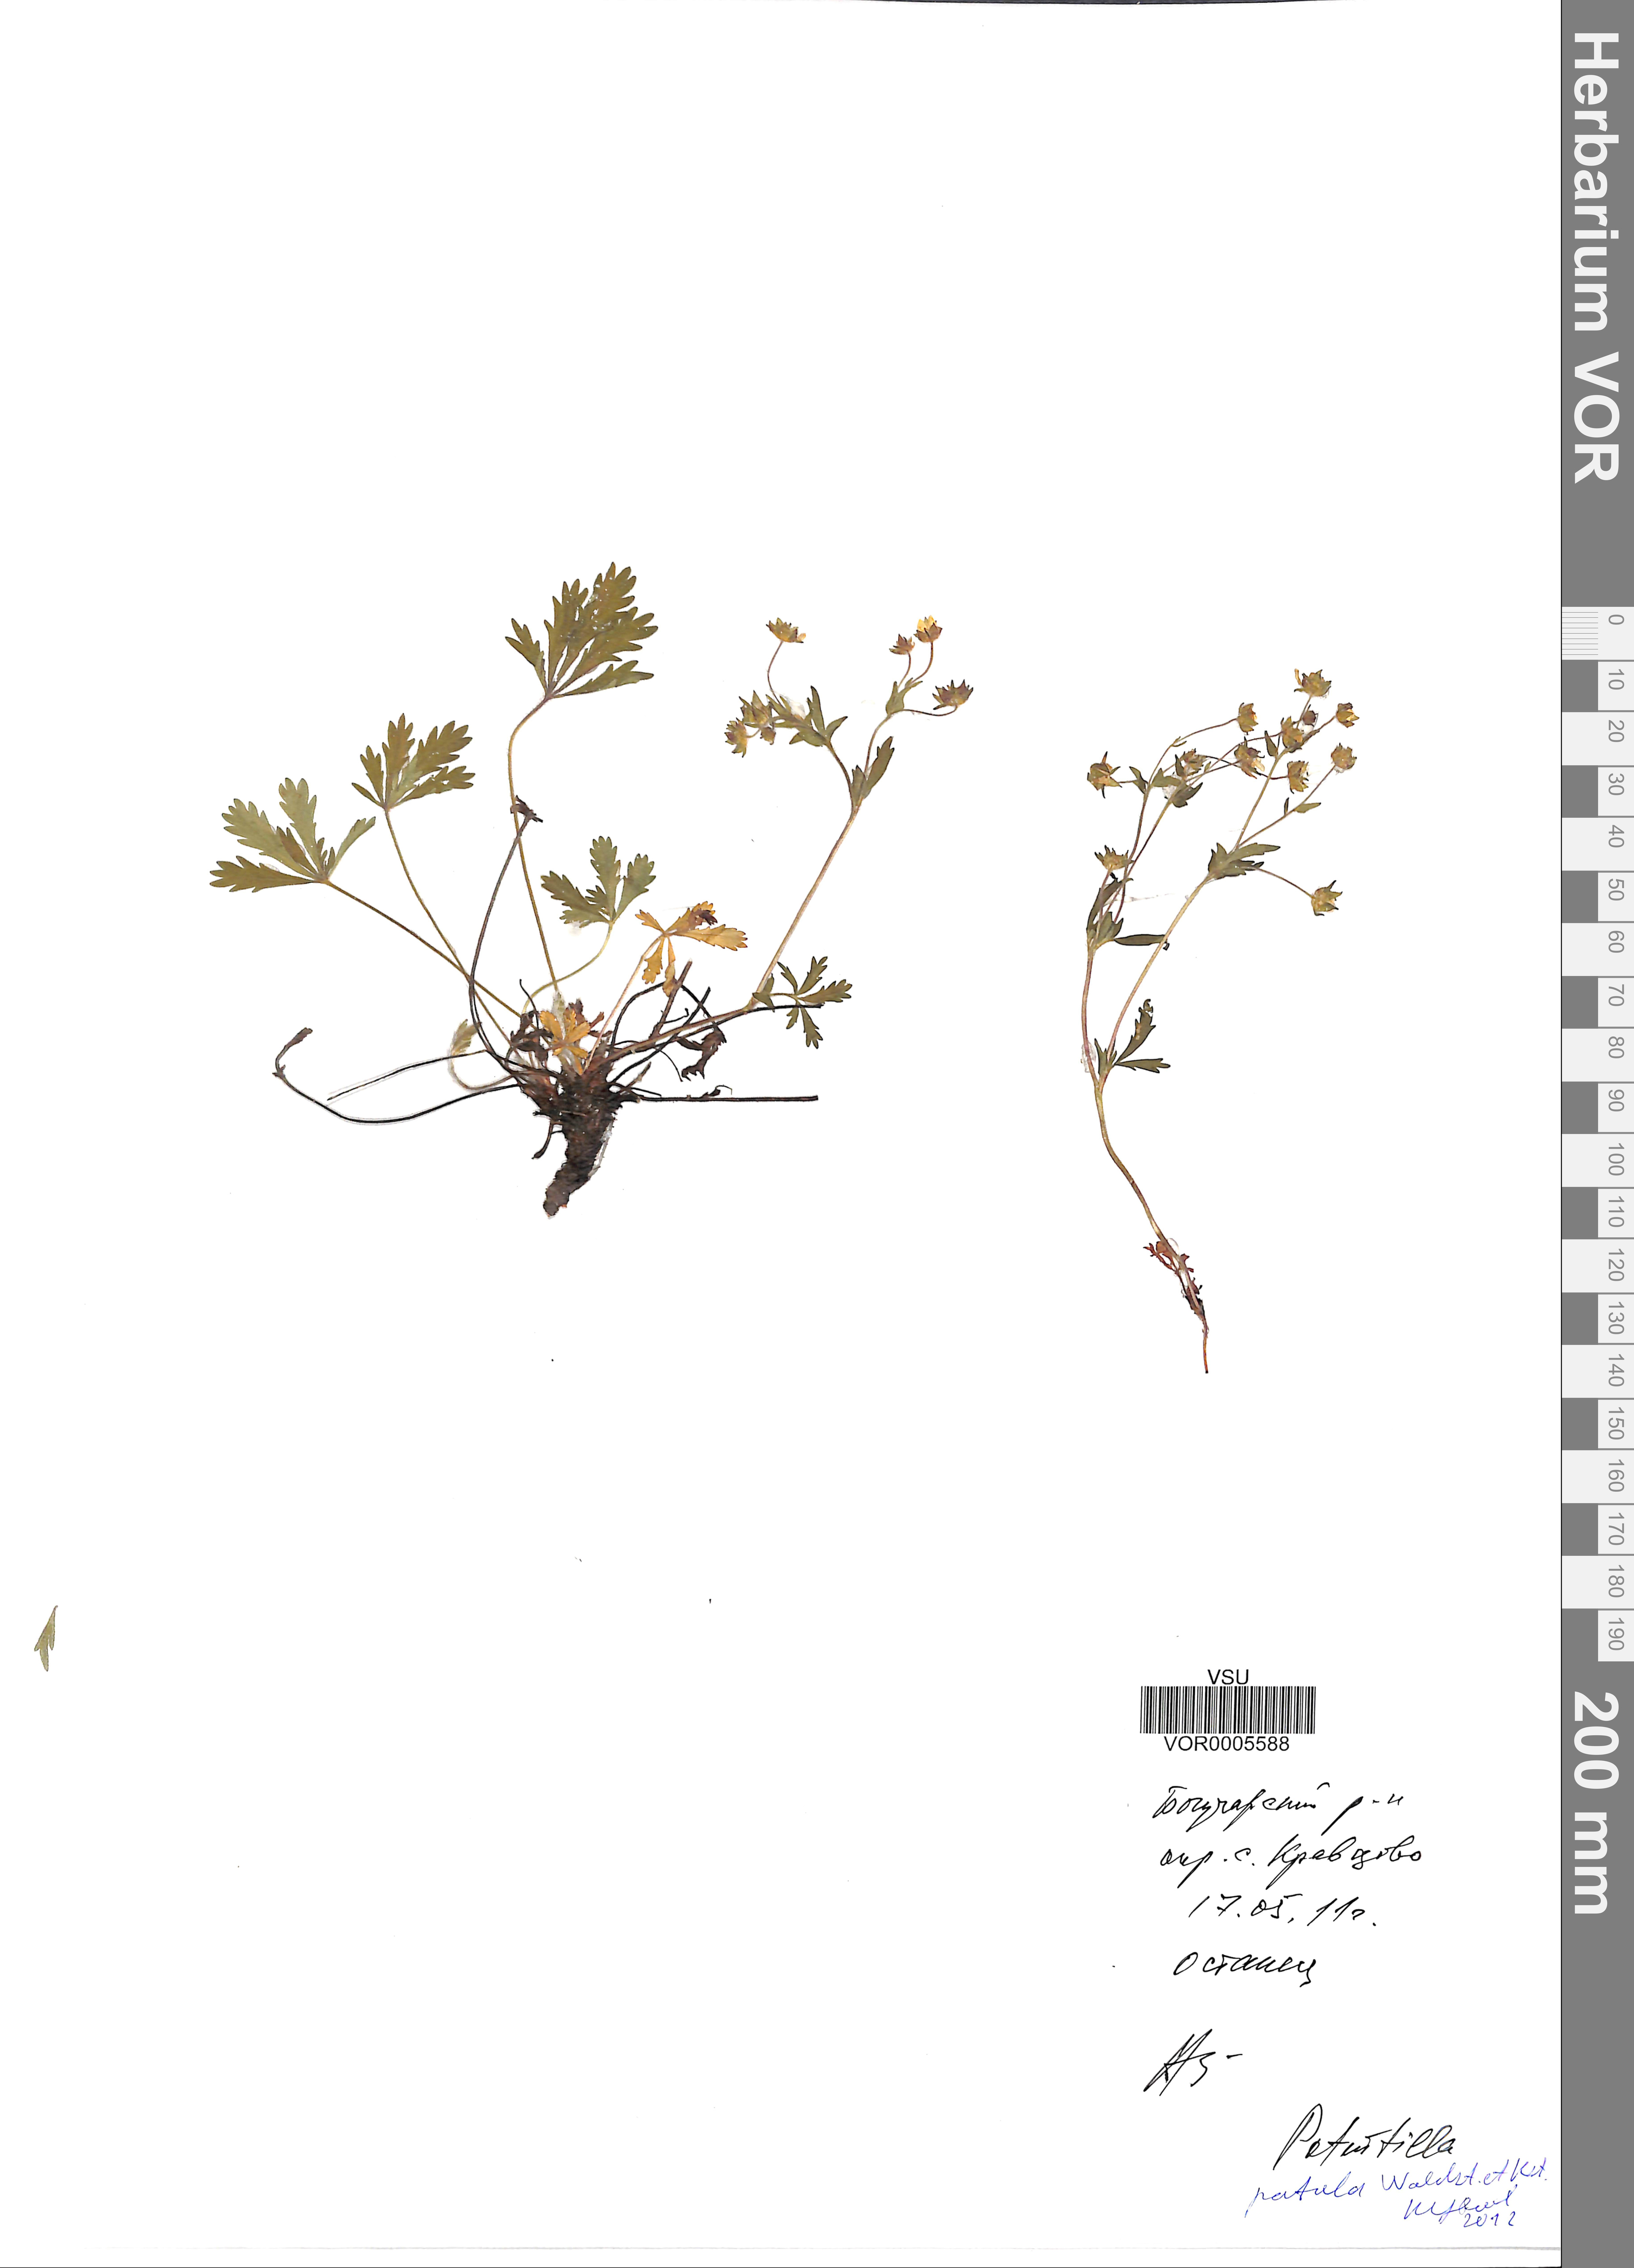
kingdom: Plantae
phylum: Tracheophyta
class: Magnoliopsida
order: Rosales
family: Rosaceae
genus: Potentilla
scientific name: Potentilla patula
